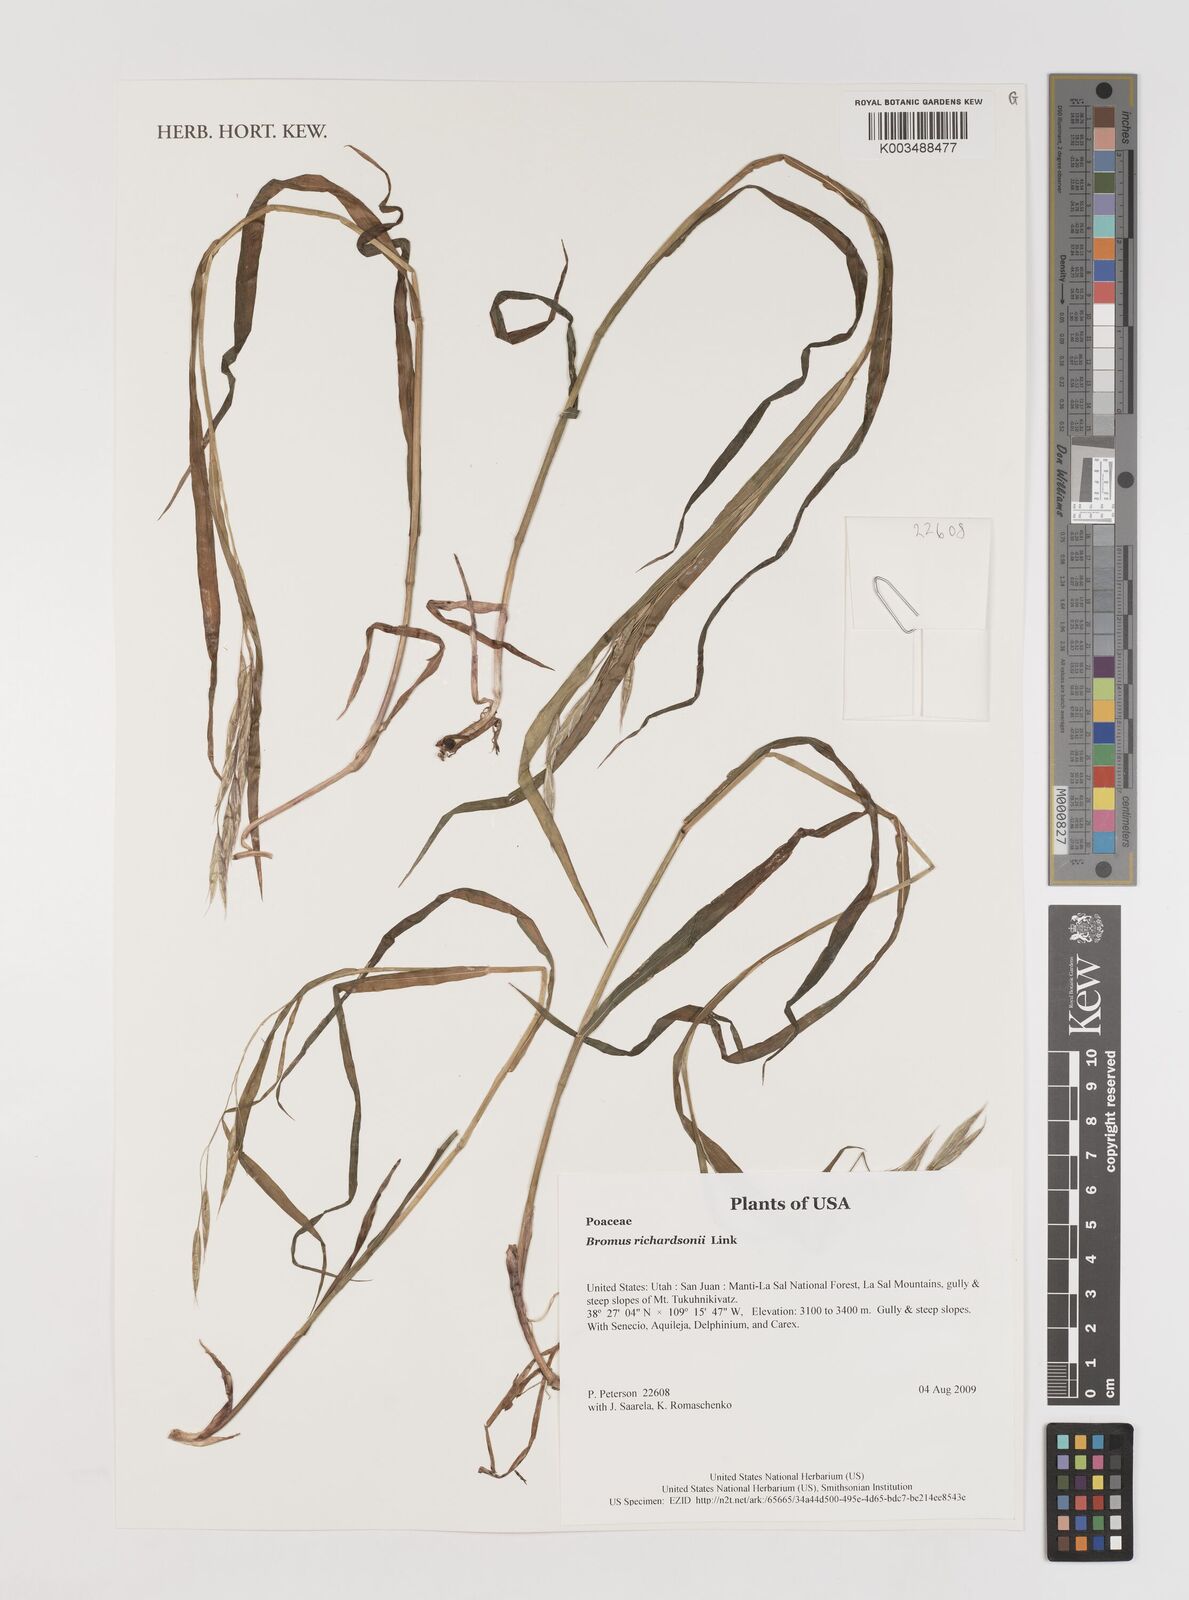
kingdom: Plantae
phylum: Tracheophyta
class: Liliopsida
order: Poales
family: Poaceae
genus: Bromus
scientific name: Bromus richardsonii
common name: Richardson's brome
